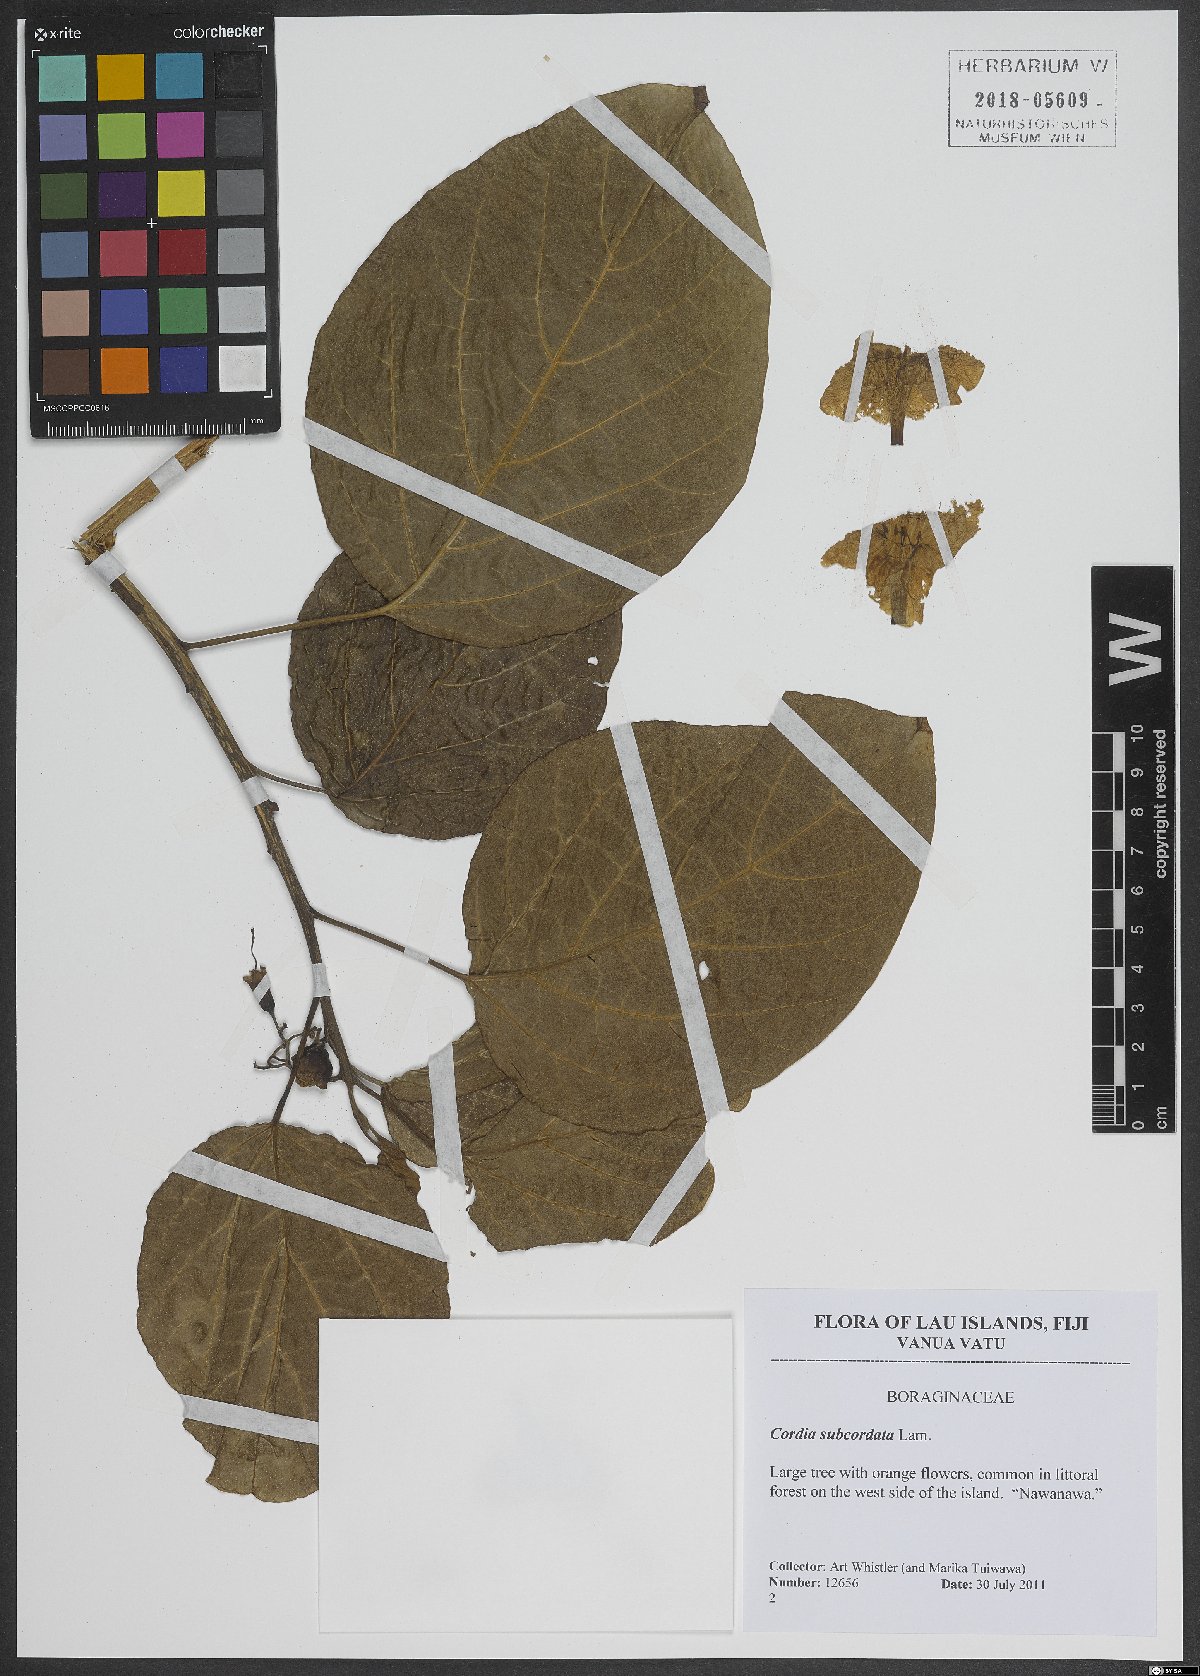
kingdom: Plantae
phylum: Tracheophyta
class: Magnoliopsida
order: Boraginales
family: Cordiaceae
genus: Cordia
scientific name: Cordia subcordata
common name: Mareer
